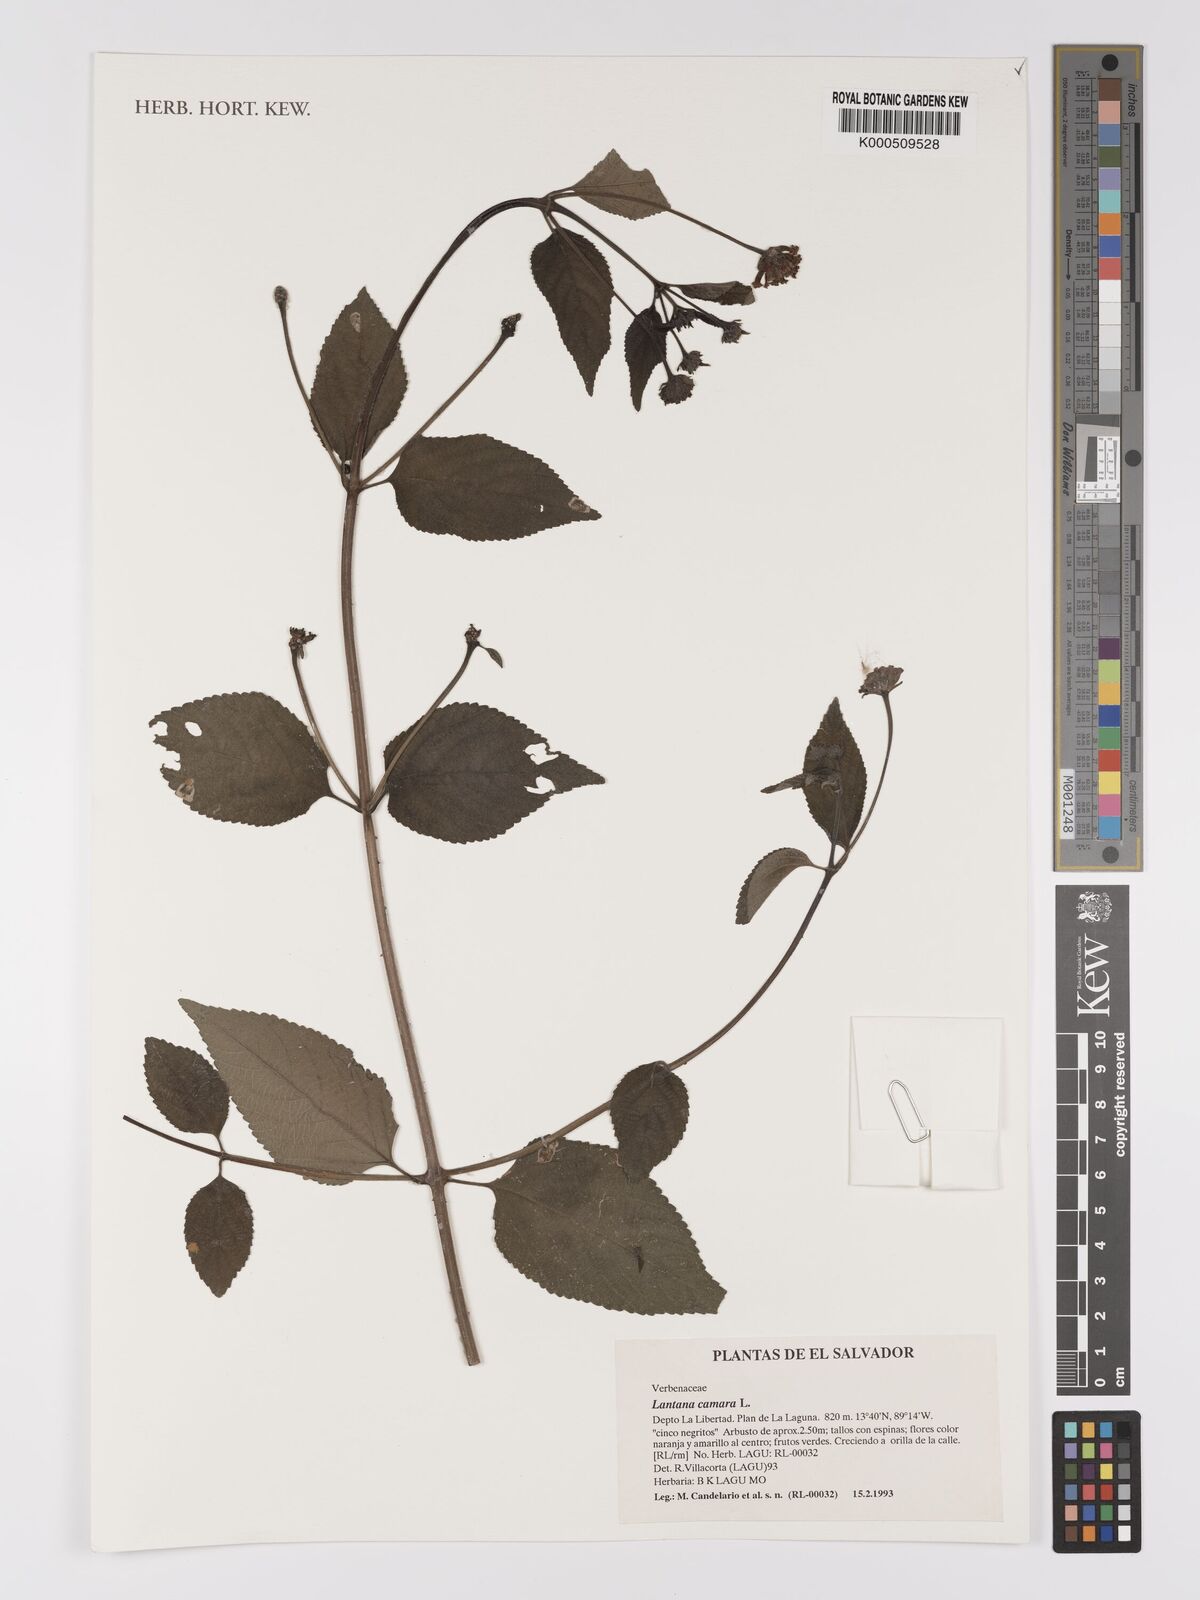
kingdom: Plantae
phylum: Tracheophyta
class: Magnoliopsida
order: Lamiales
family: Verbenaceae
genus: Lantana
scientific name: Lantana camara
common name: Lantana
